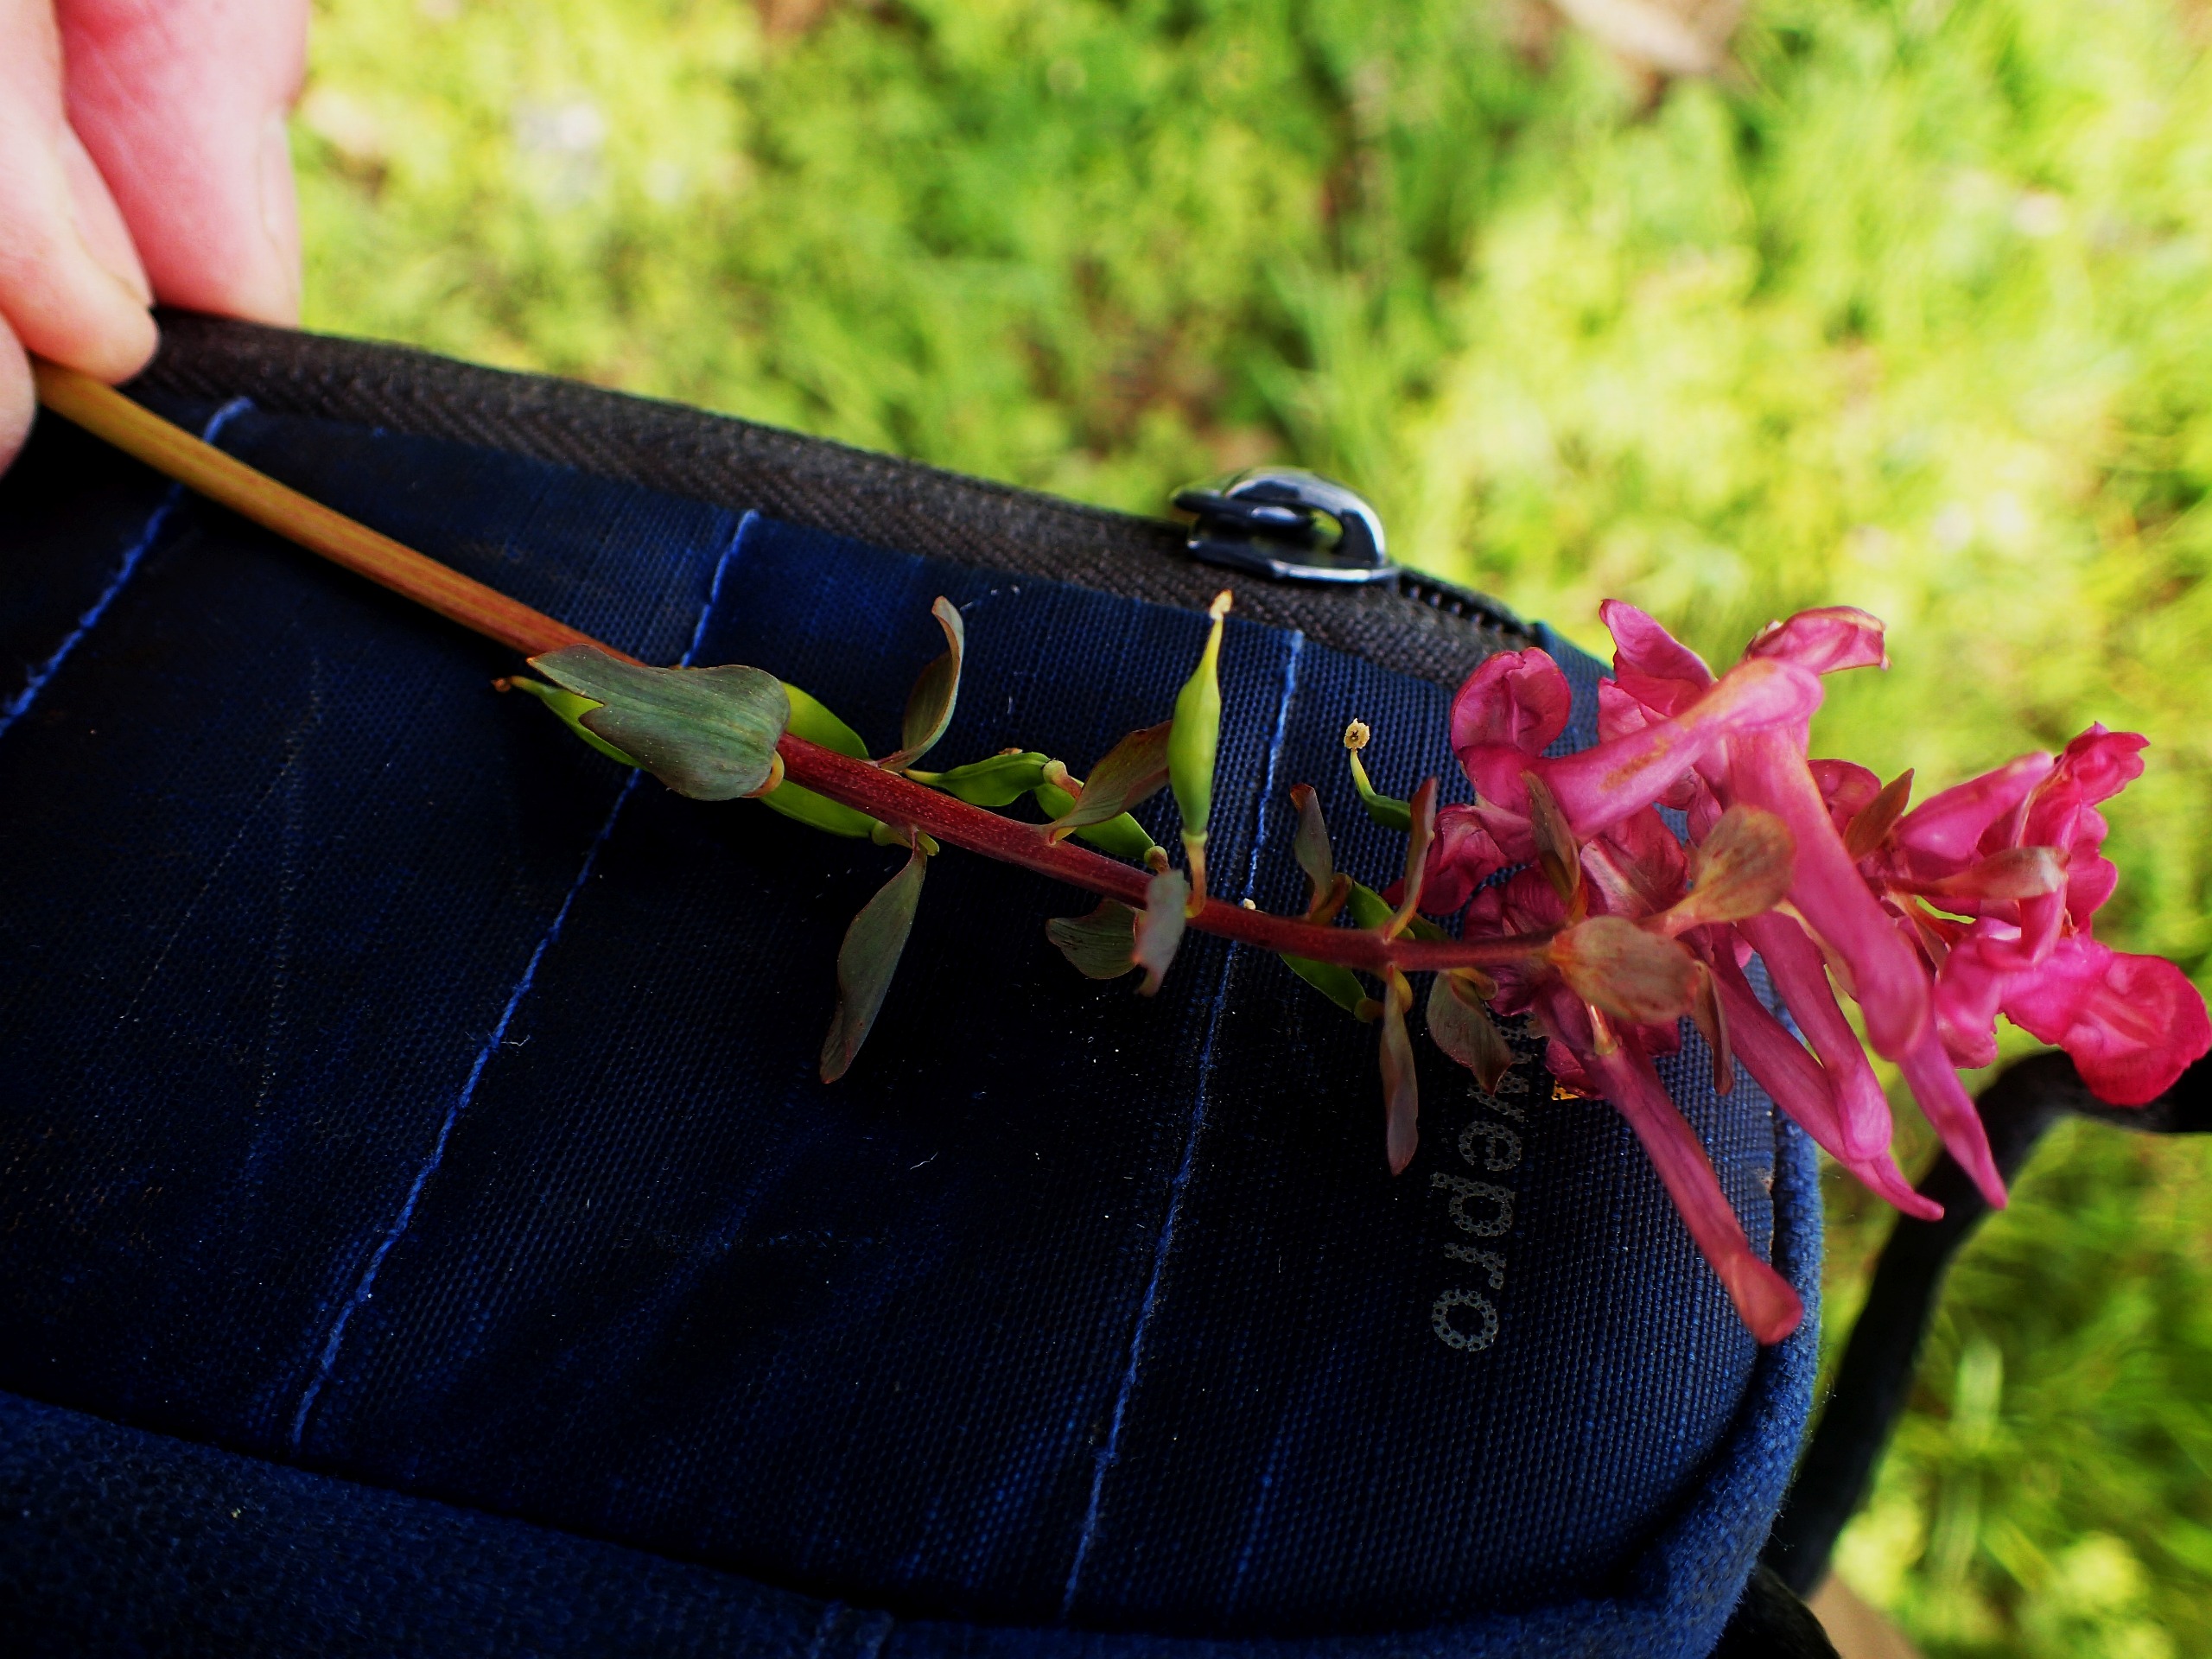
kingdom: Plantae
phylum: Tracheophyta
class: Magnoliopsida
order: Ranunculales
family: Papaveraceae
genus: Corydalis
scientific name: Corydalis cava
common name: Hulrodet lærkespore
